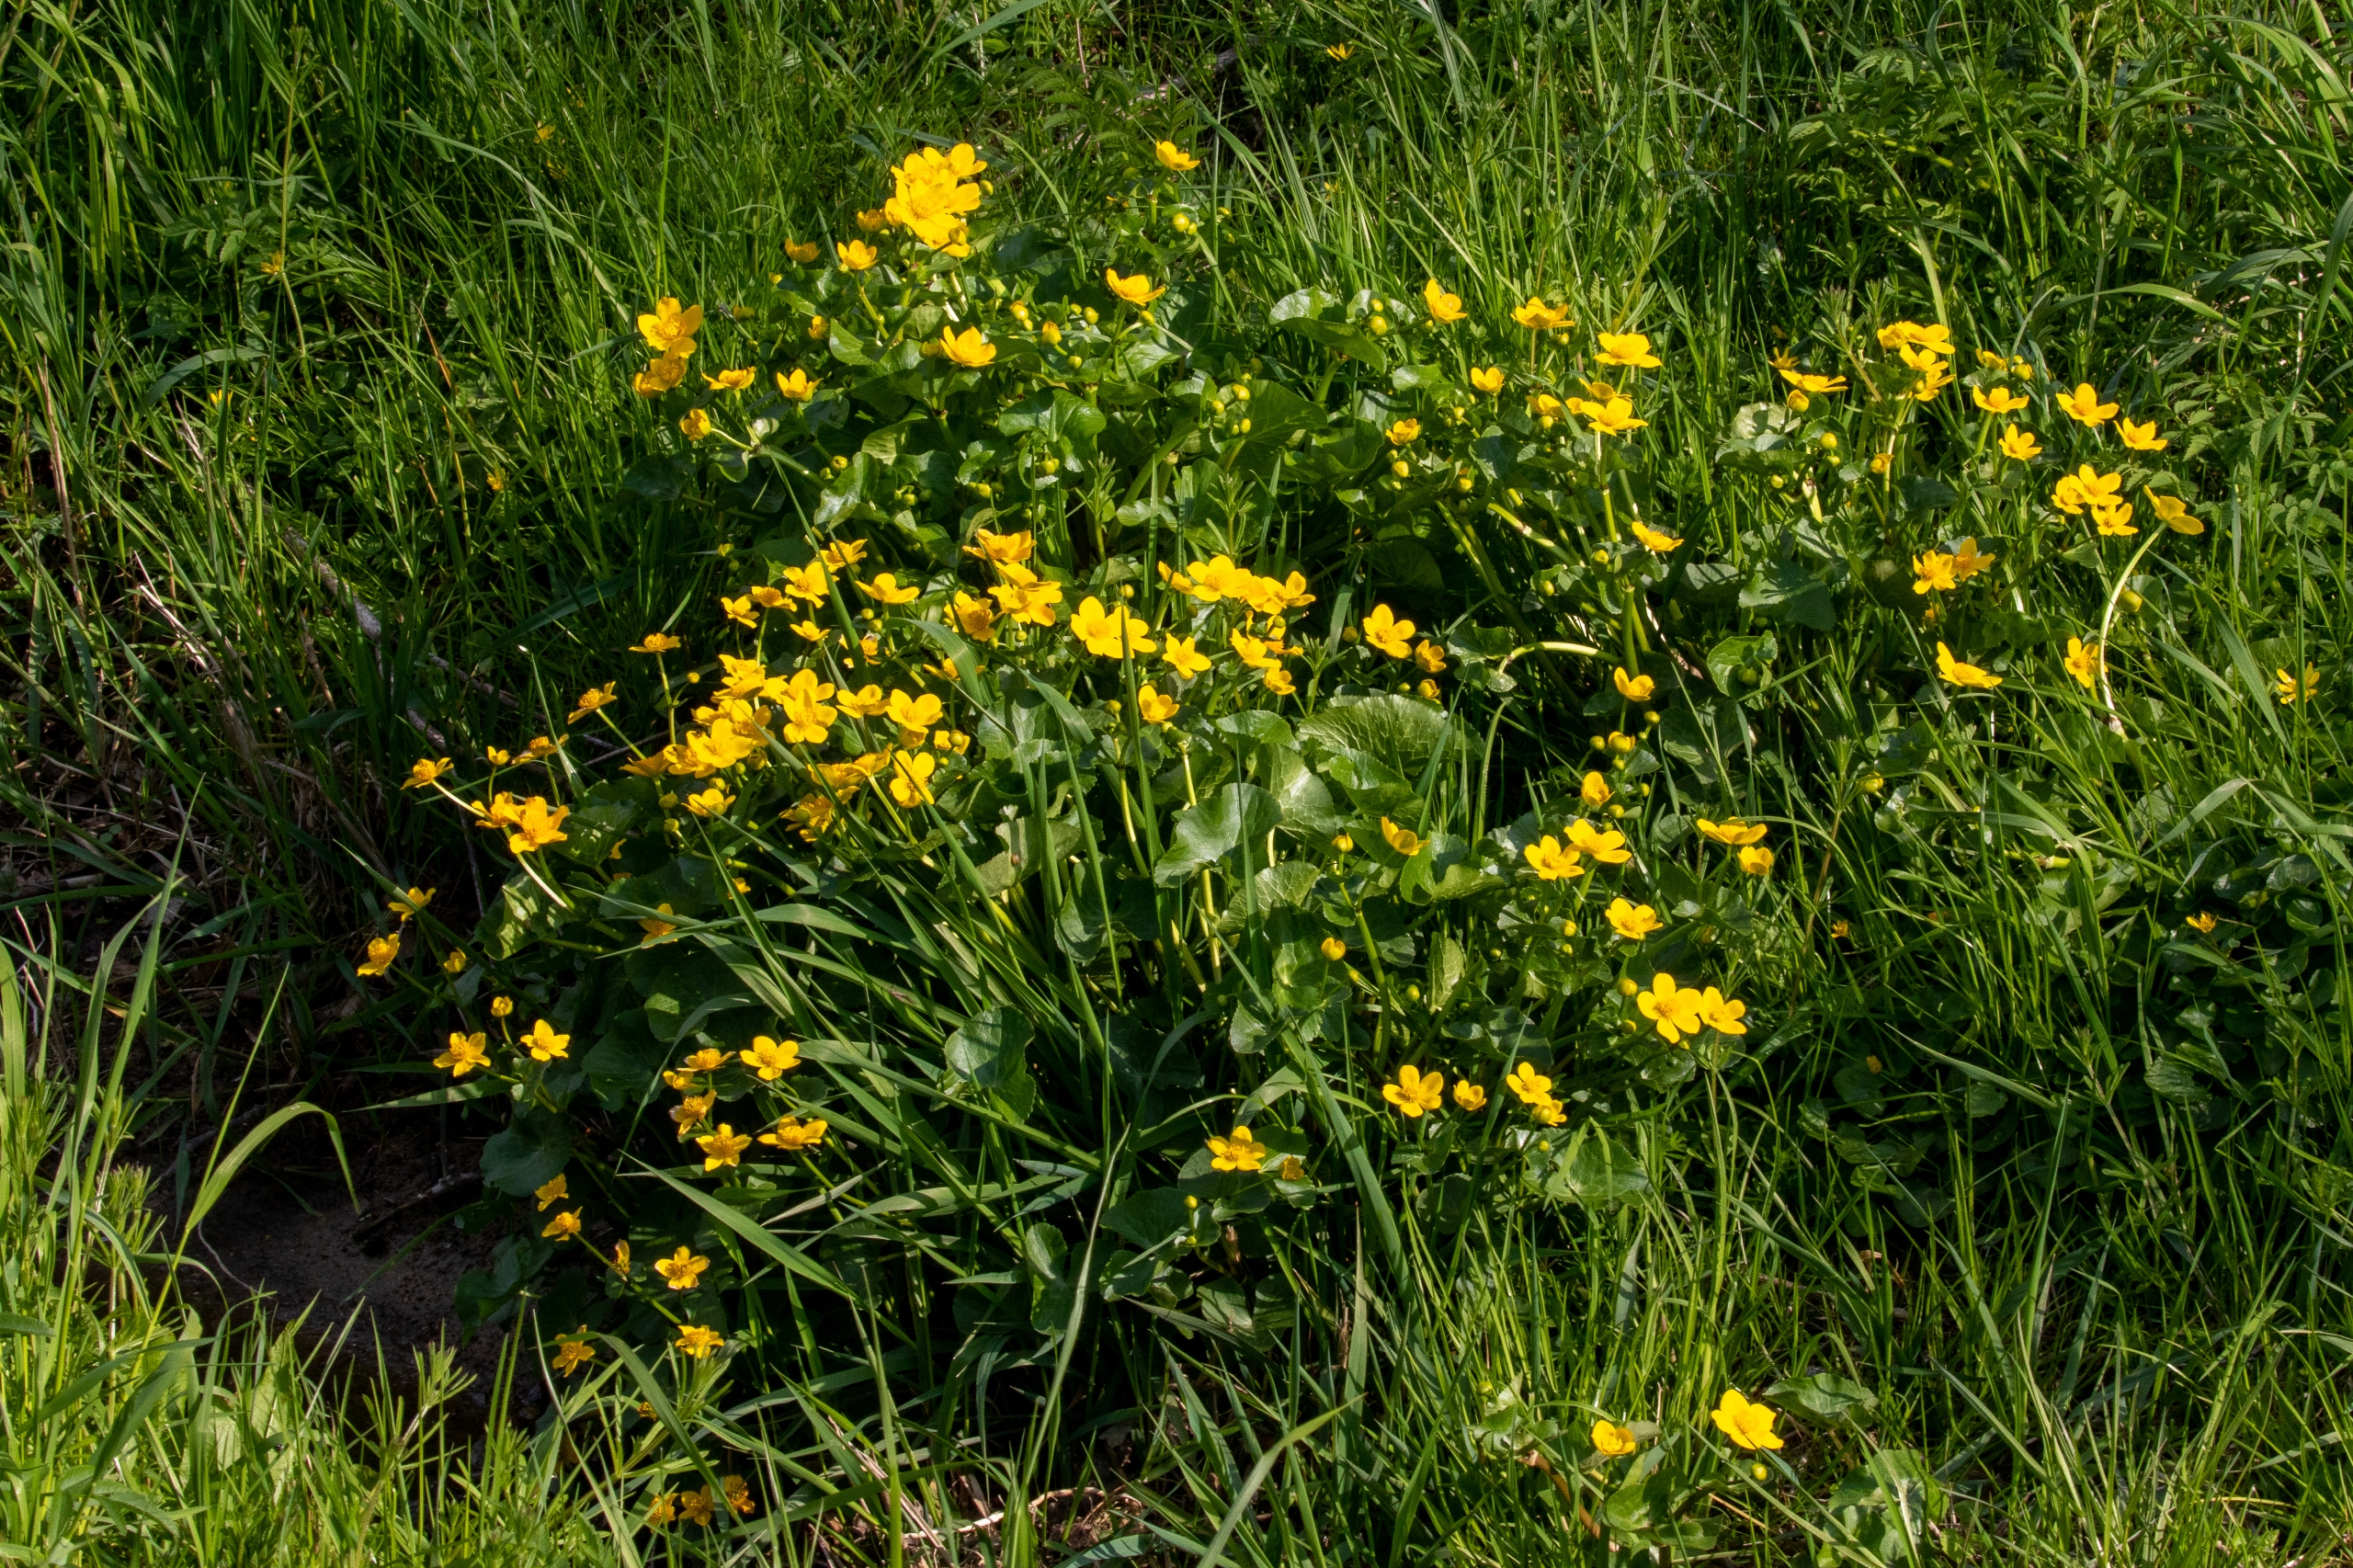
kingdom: Plantae
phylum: Tracheophyta
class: Magnoliopsida
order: Ranunculales
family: Ranunculaceae
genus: Caltha
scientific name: Caltha palustris
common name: Eng-kabbeleje
